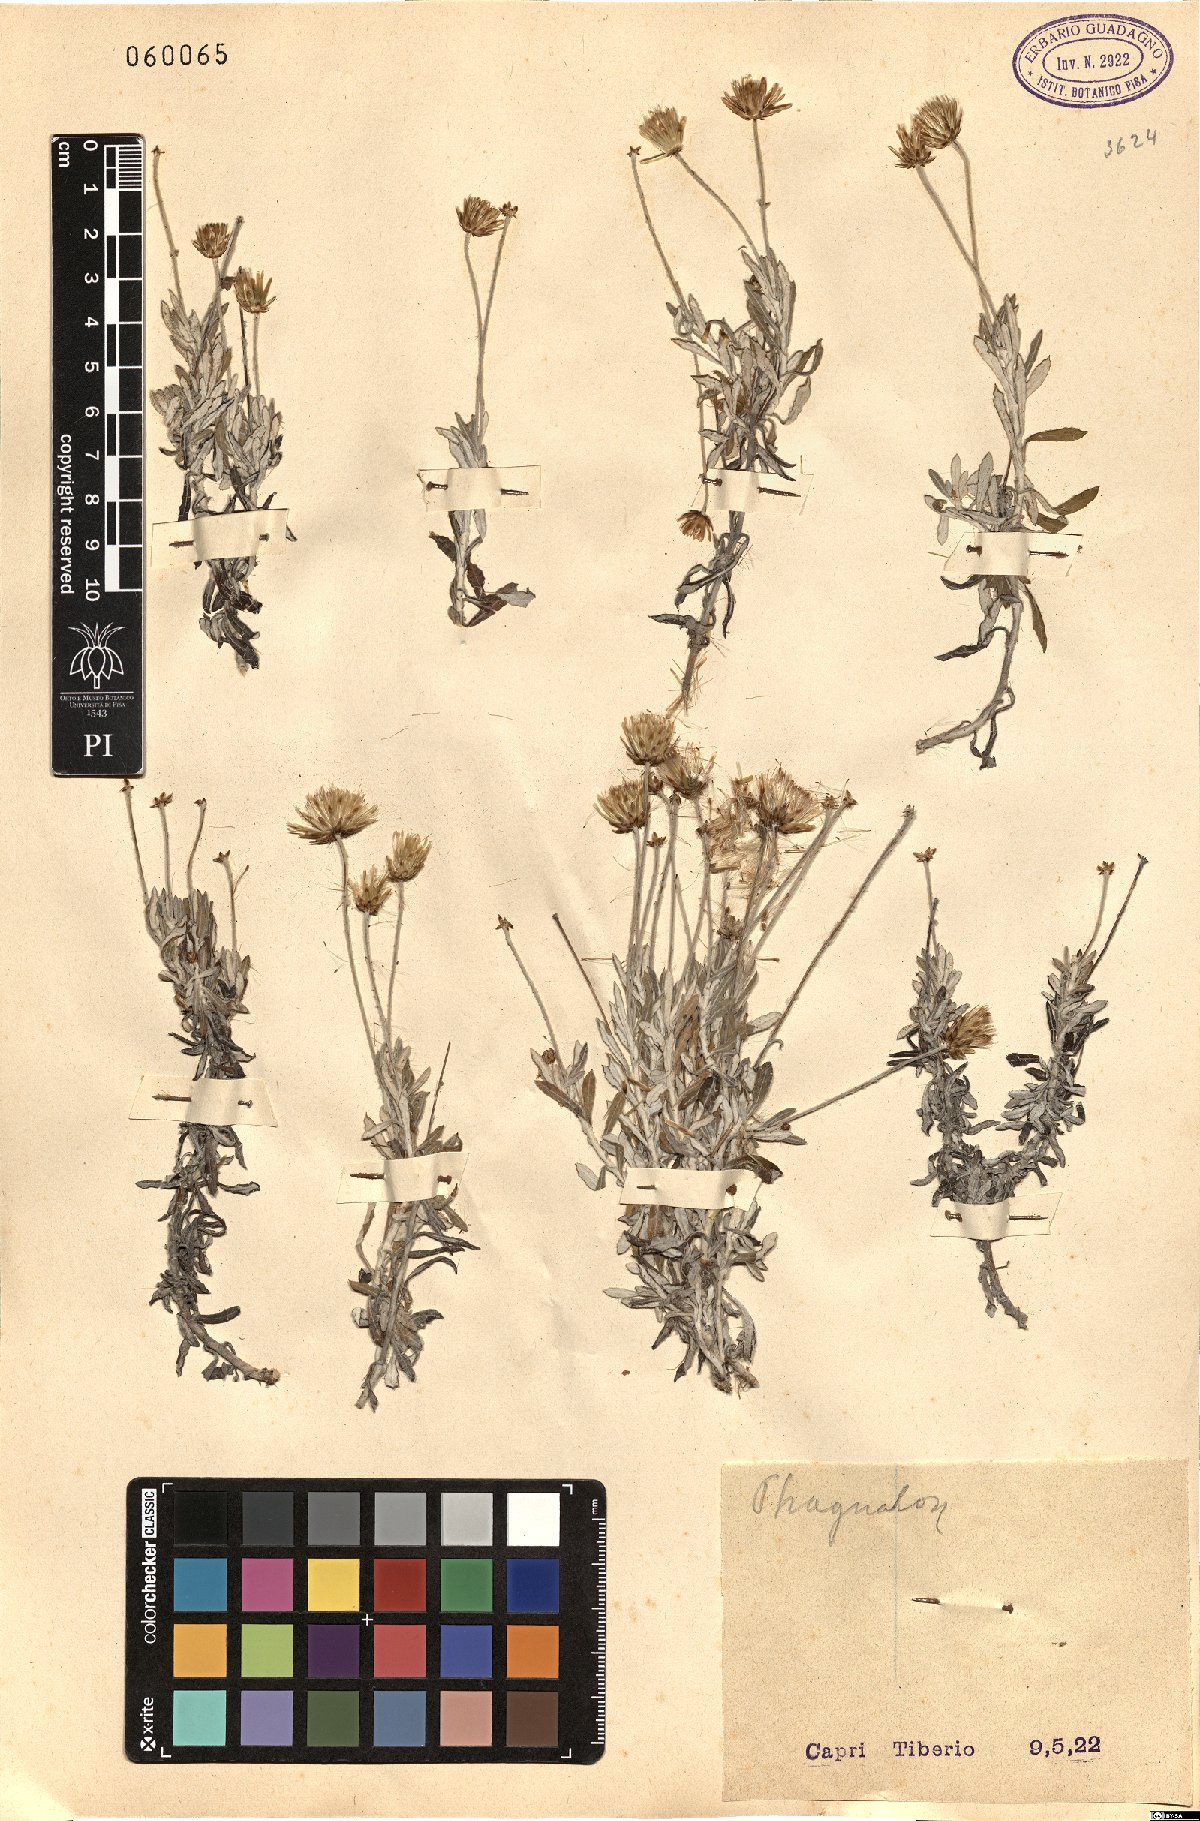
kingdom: Plantae
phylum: Tracheophyta
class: Magnoliopsida
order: Asterales
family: Asteraceae
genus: Phagnalon
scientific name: Phagnalon
